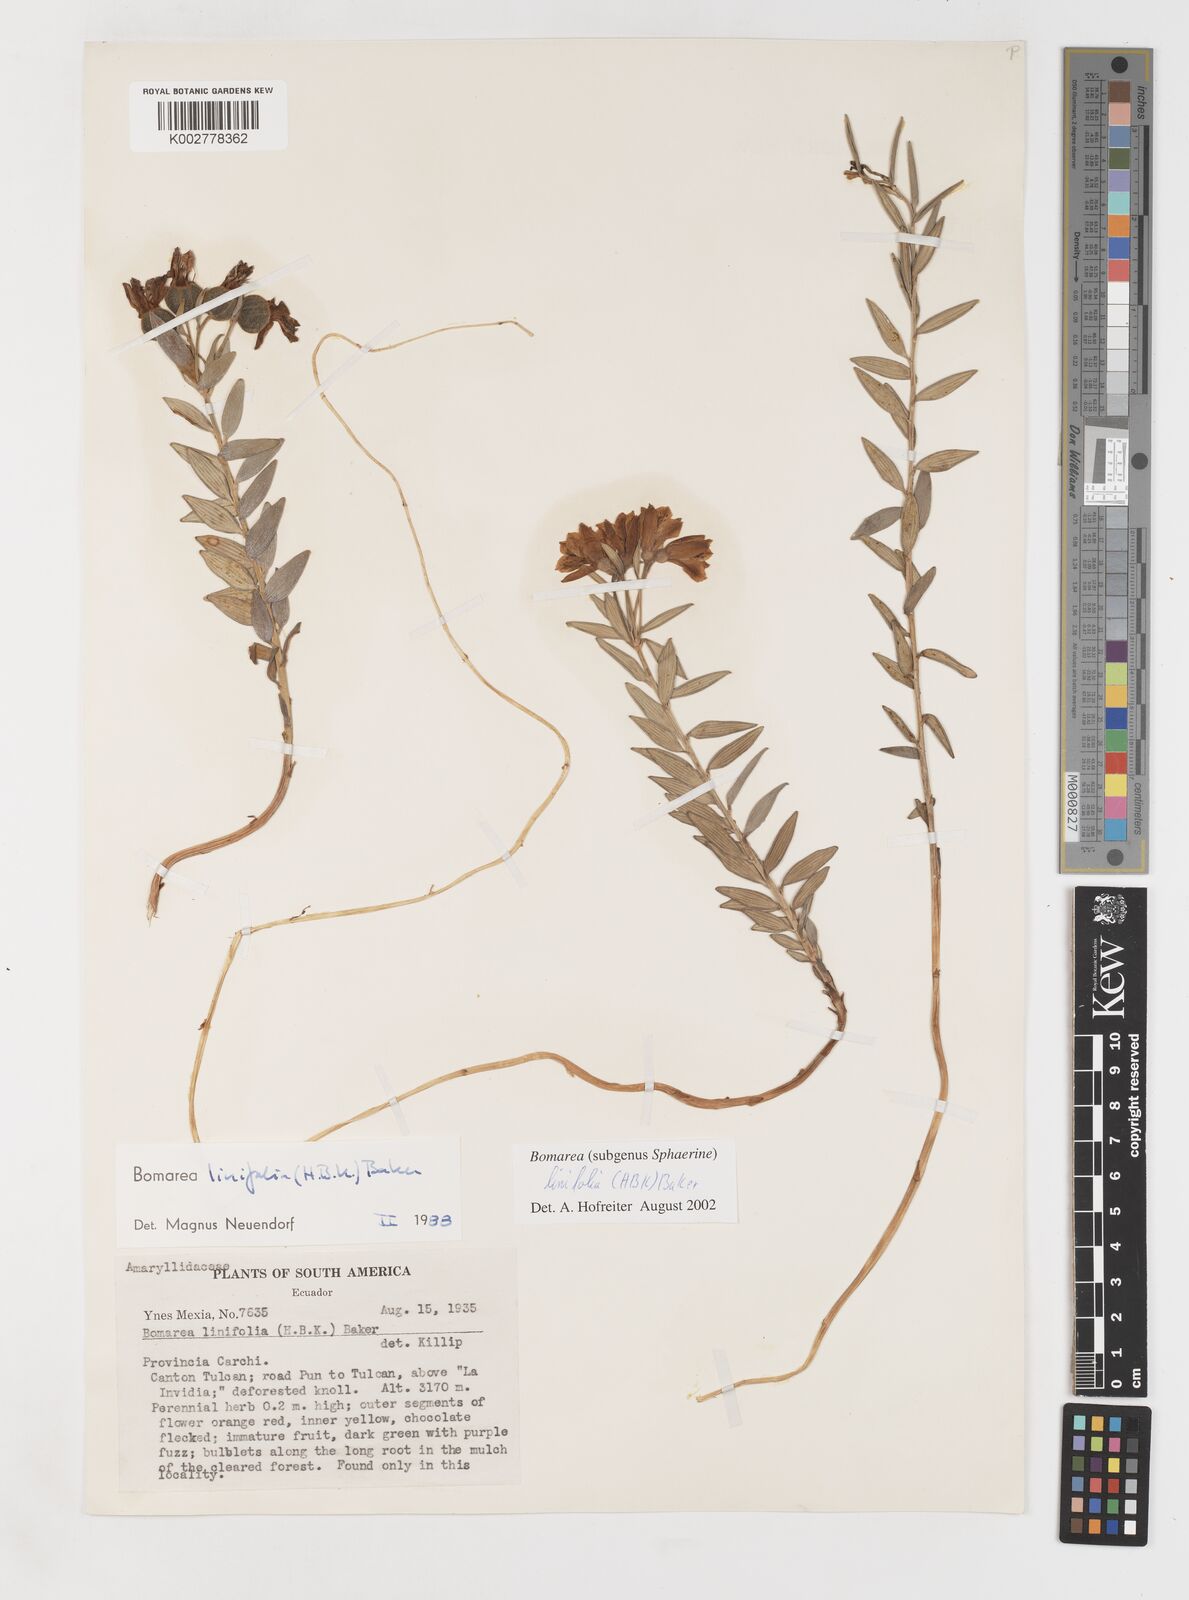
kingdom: Plantae
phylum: Tracheophyta
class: Liliopsida
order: Liliales
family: Alstroemeriaceae
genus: Bomarea
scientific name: Bomarea linifolia
